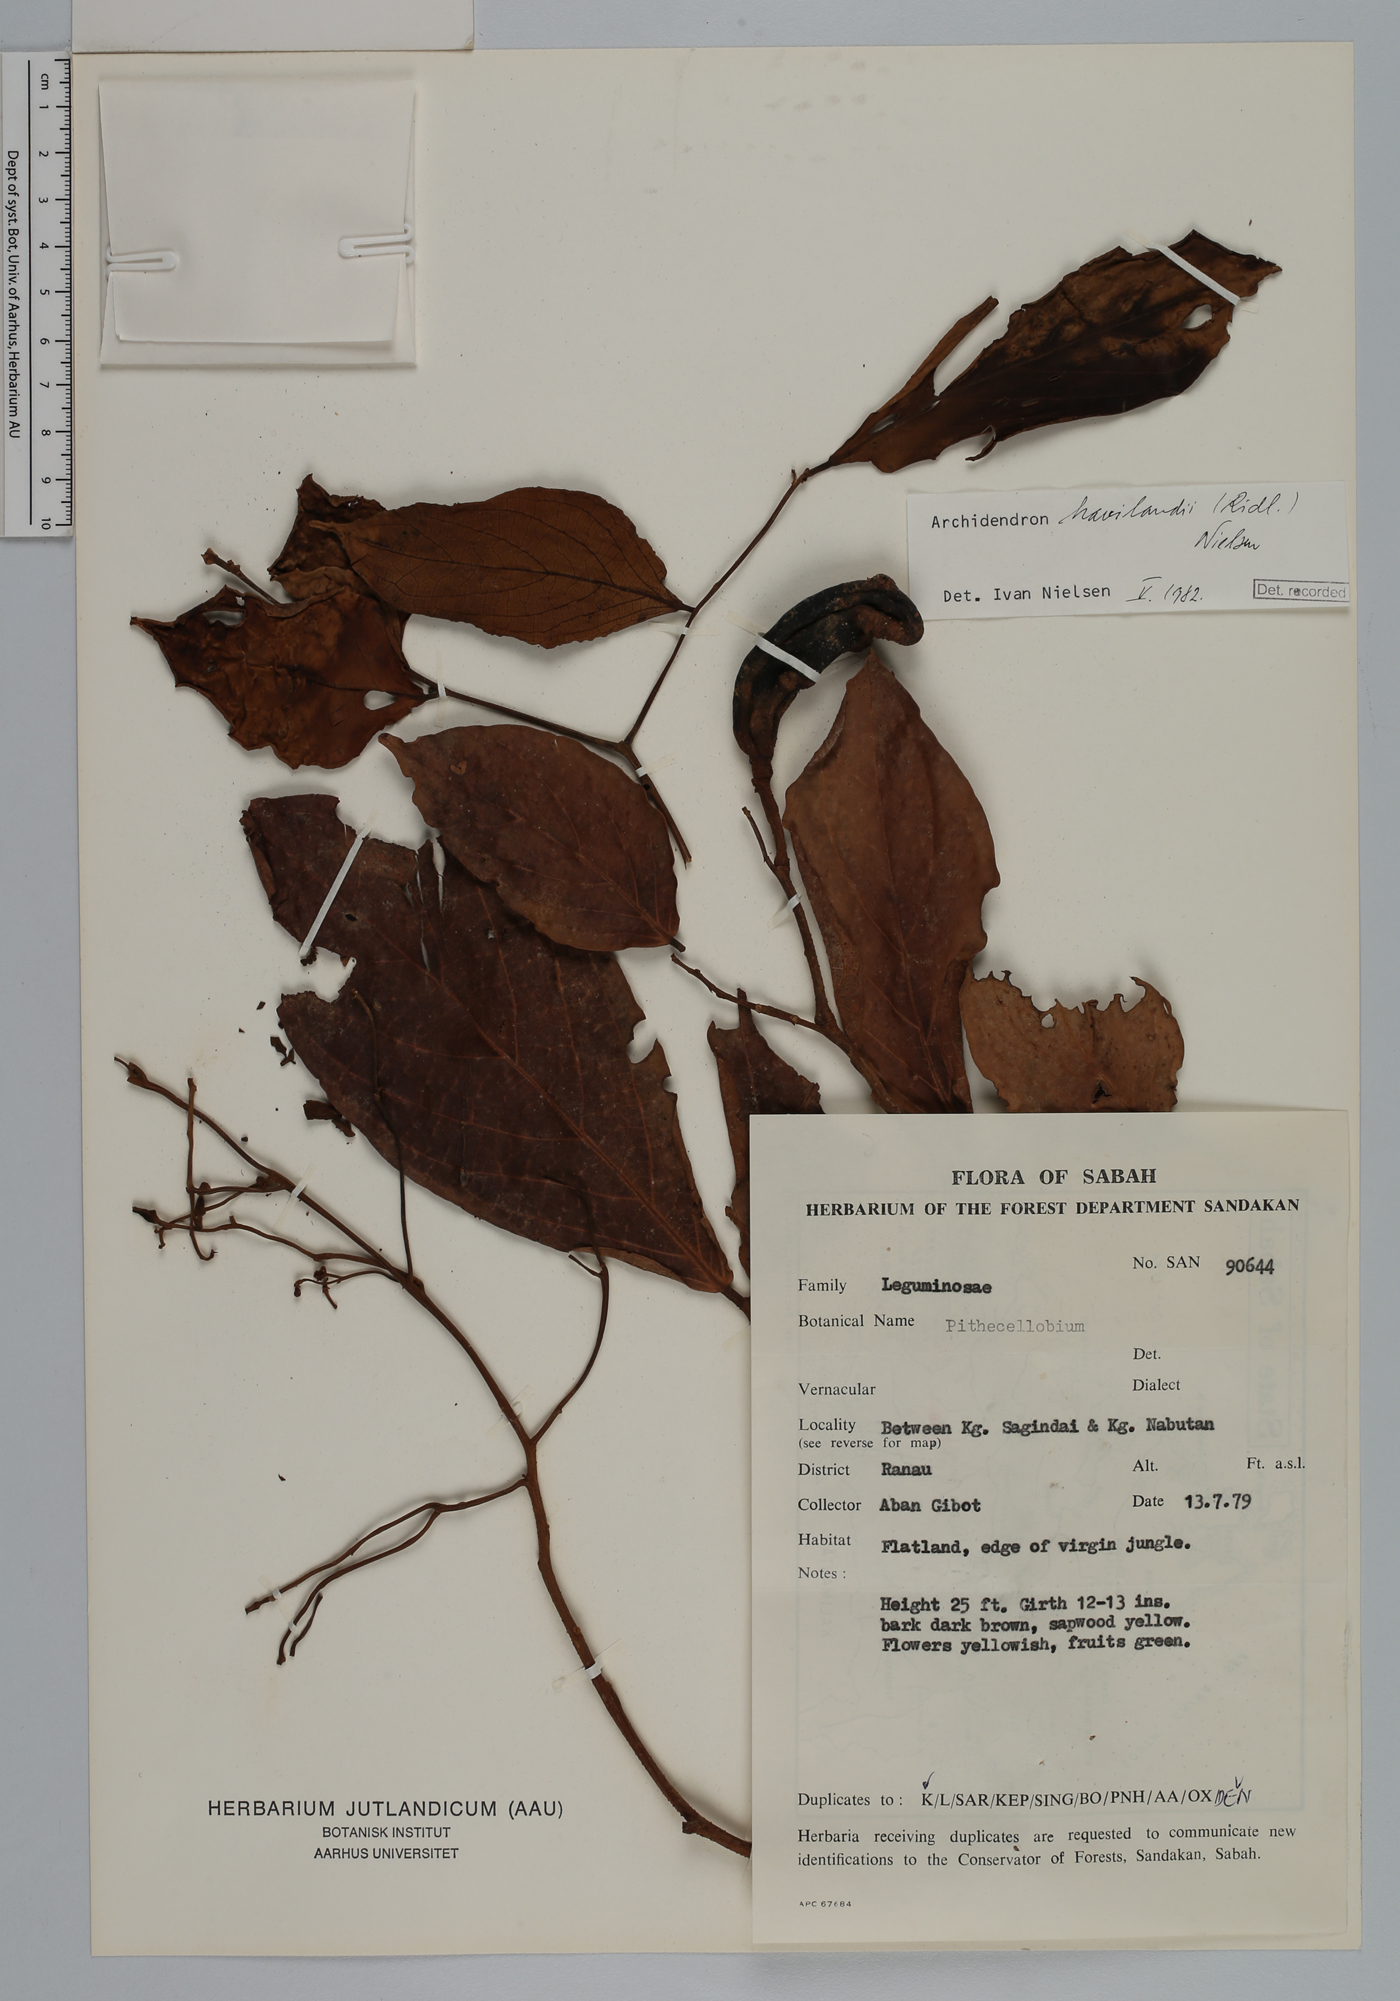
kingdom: Plantae
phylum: Tracheophyta
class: Magnoliopsida
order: Fabales
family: Fabaceae
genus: Archidendron
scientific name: Archidendron havilandii
